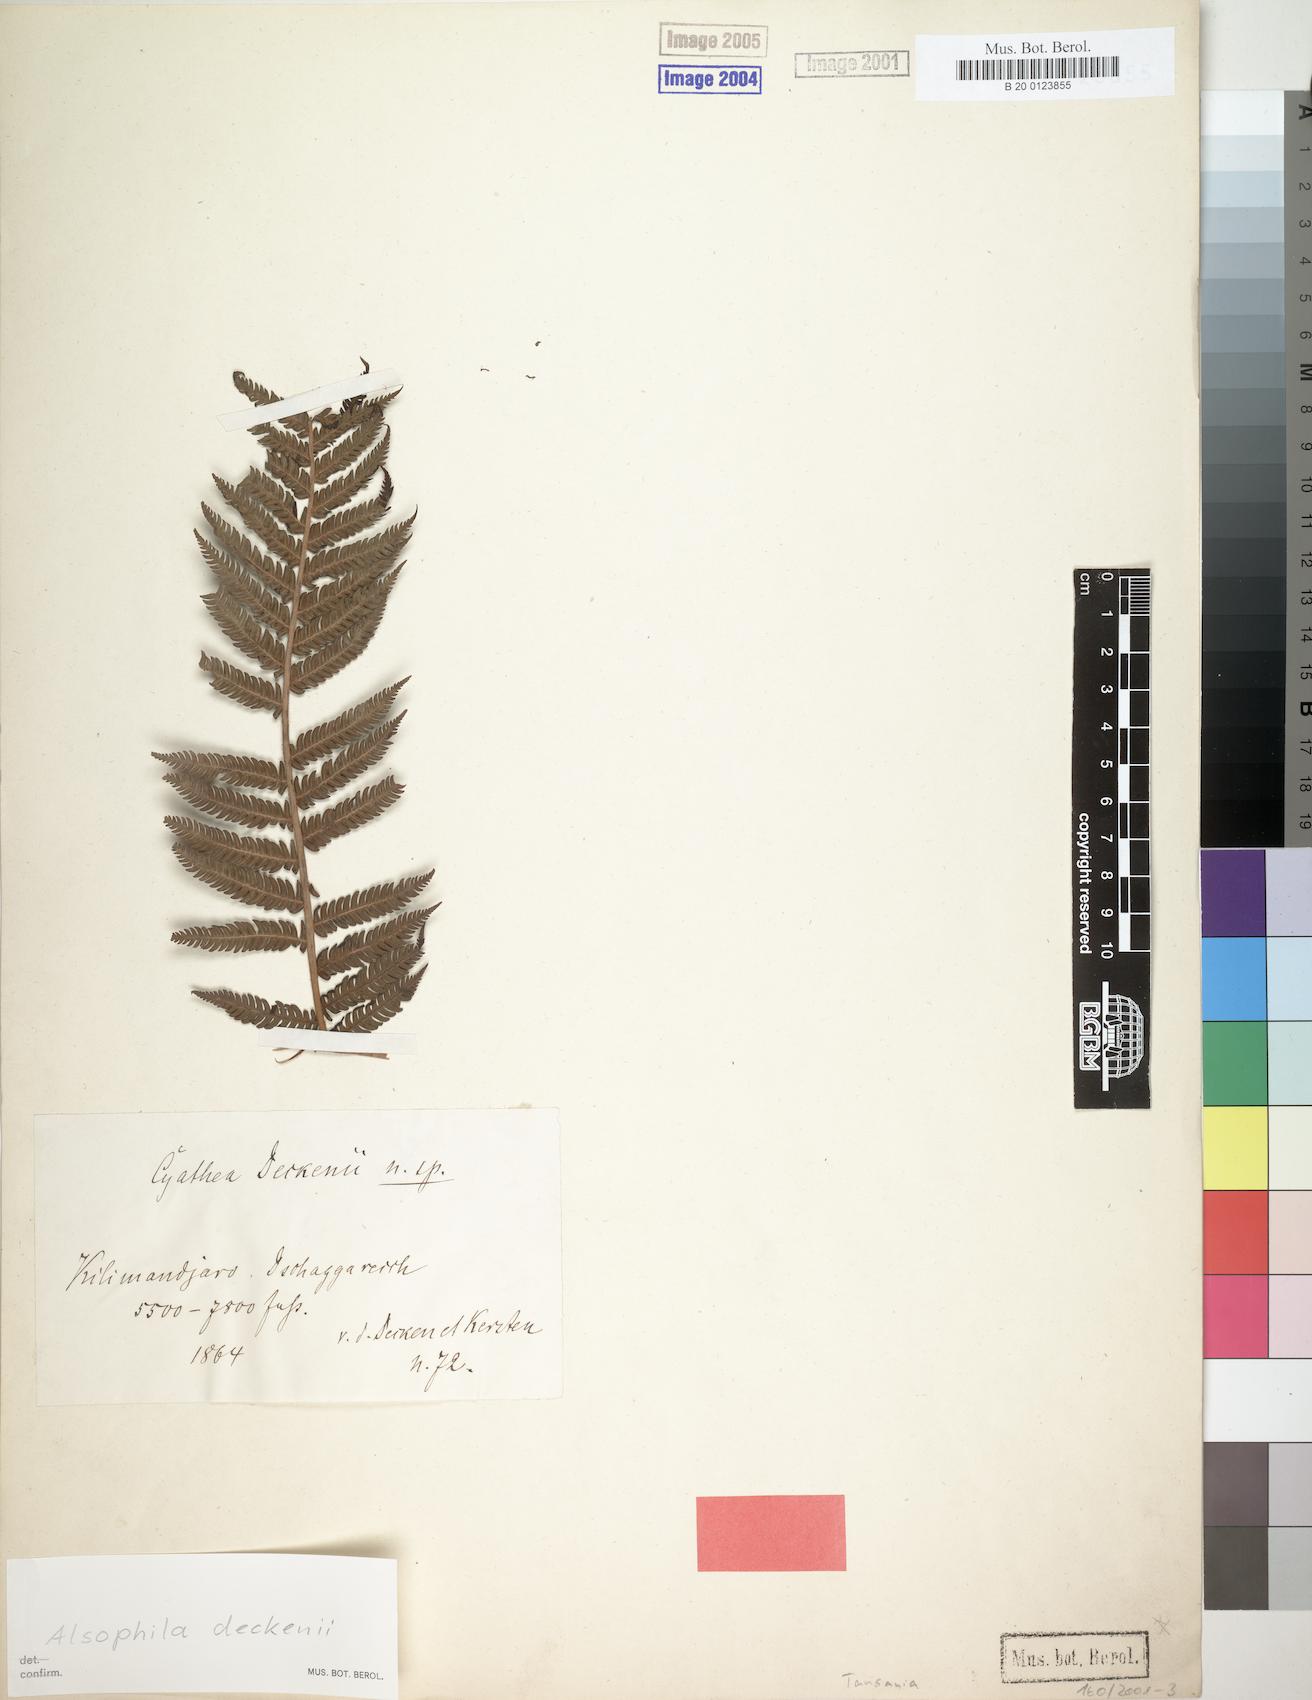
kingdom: Plantae
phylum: Tracheophyta
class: Polypodiopsida
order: Cyatheales
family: Cyatheaceae
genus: Alsophila
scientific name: Alsophila deckenii
